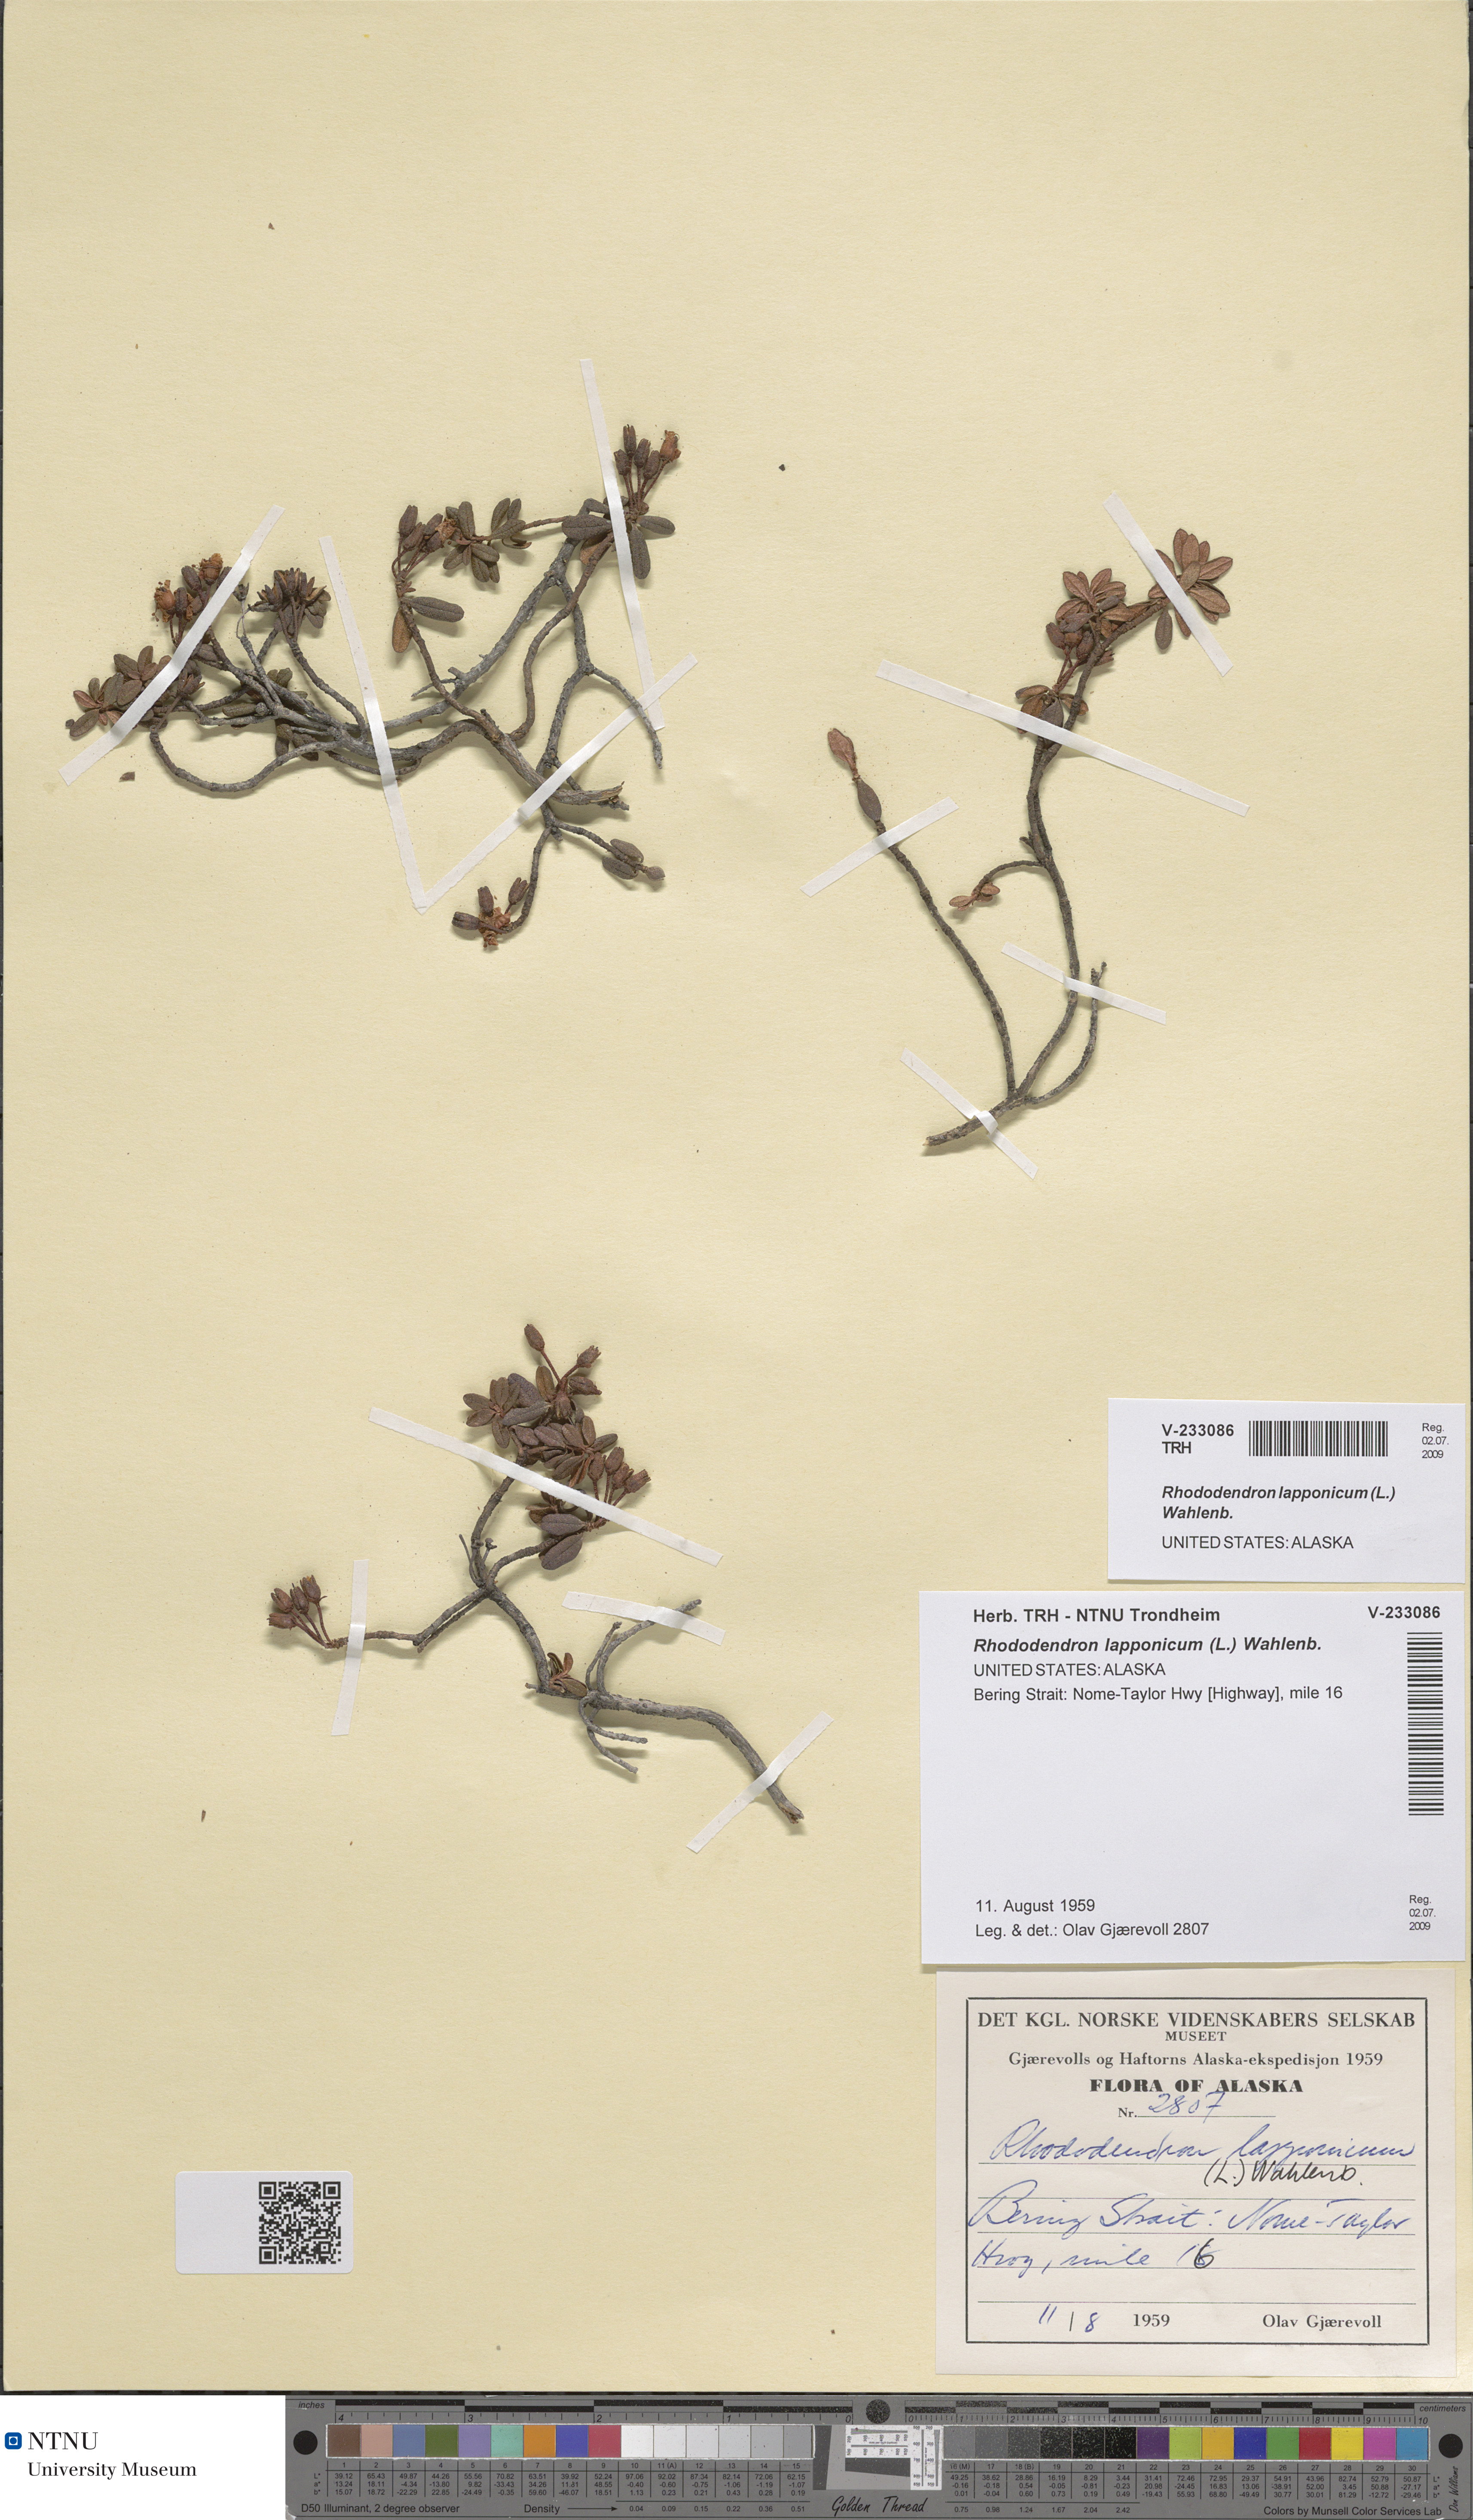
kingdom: Plantae
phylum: Tracheophyta
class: Magnoliopsida
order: Ericales
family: Ericaceae
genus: Rhododendron
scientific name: Rhododendron lapponicum
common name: Lapland rhododendron
